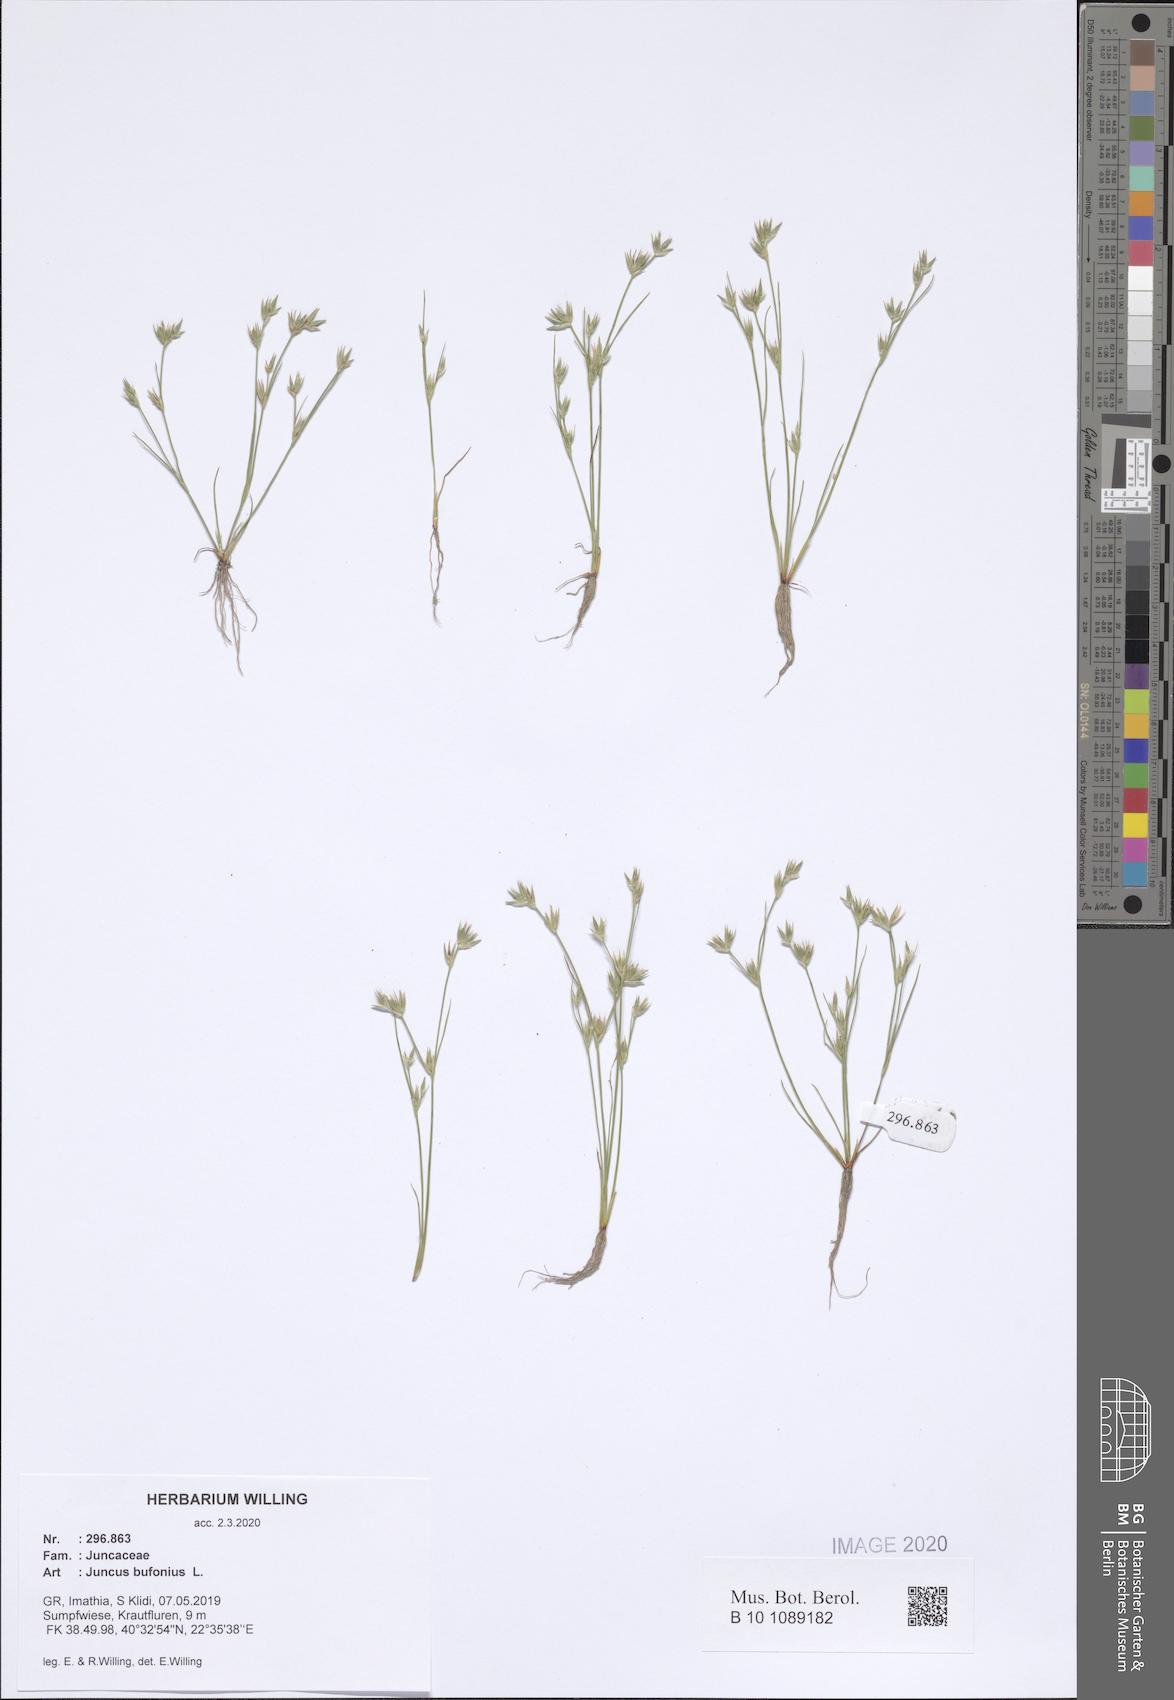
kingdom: Plantae
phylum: Tracheophyta
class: Liliopsida
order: Poales
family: Juncaceae
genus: Juncus
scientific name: Juncus bufonius
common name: Toad rush
